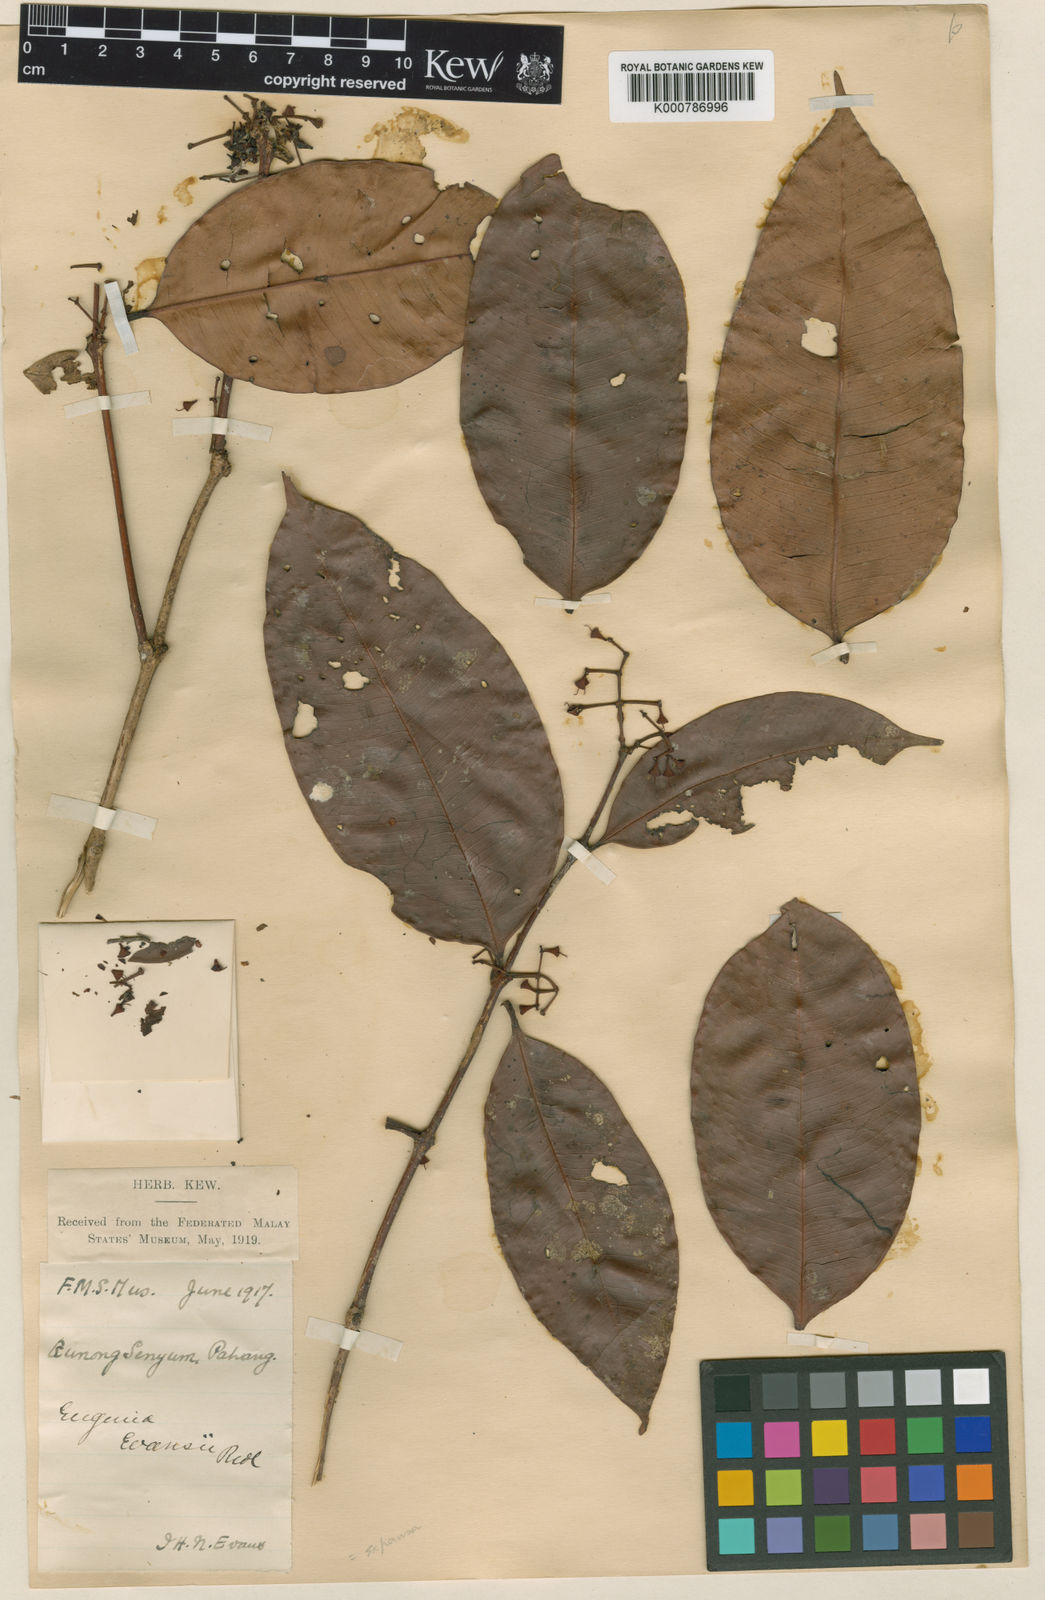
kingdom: Plantae
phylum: Tracheophyta
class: Magnoliopsida
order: Myrtales
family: Myrtaceae
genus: Syzygium
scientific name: Syzygium racemosum
